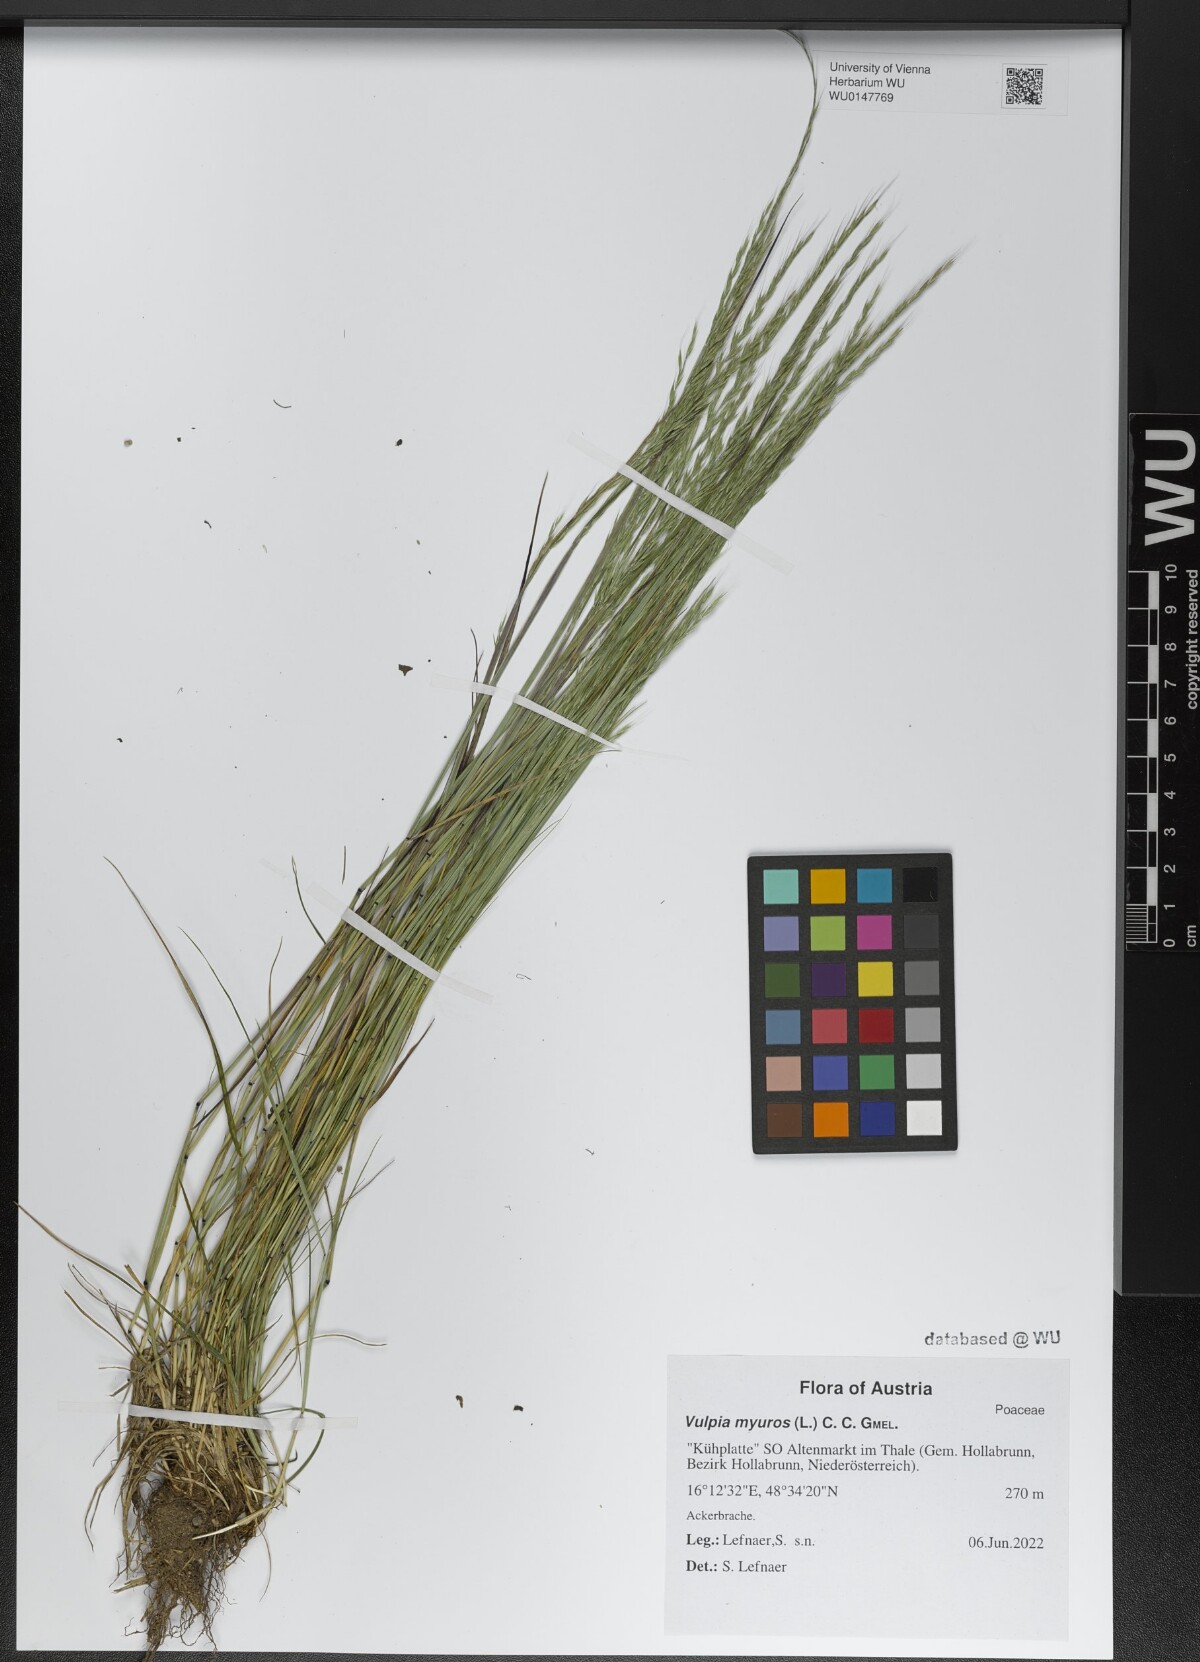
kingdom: Plantae
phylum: Tracheophyta
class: Liliopsida
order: Poales
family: Poaceae
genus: Festuca
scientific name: Festuca myuros
